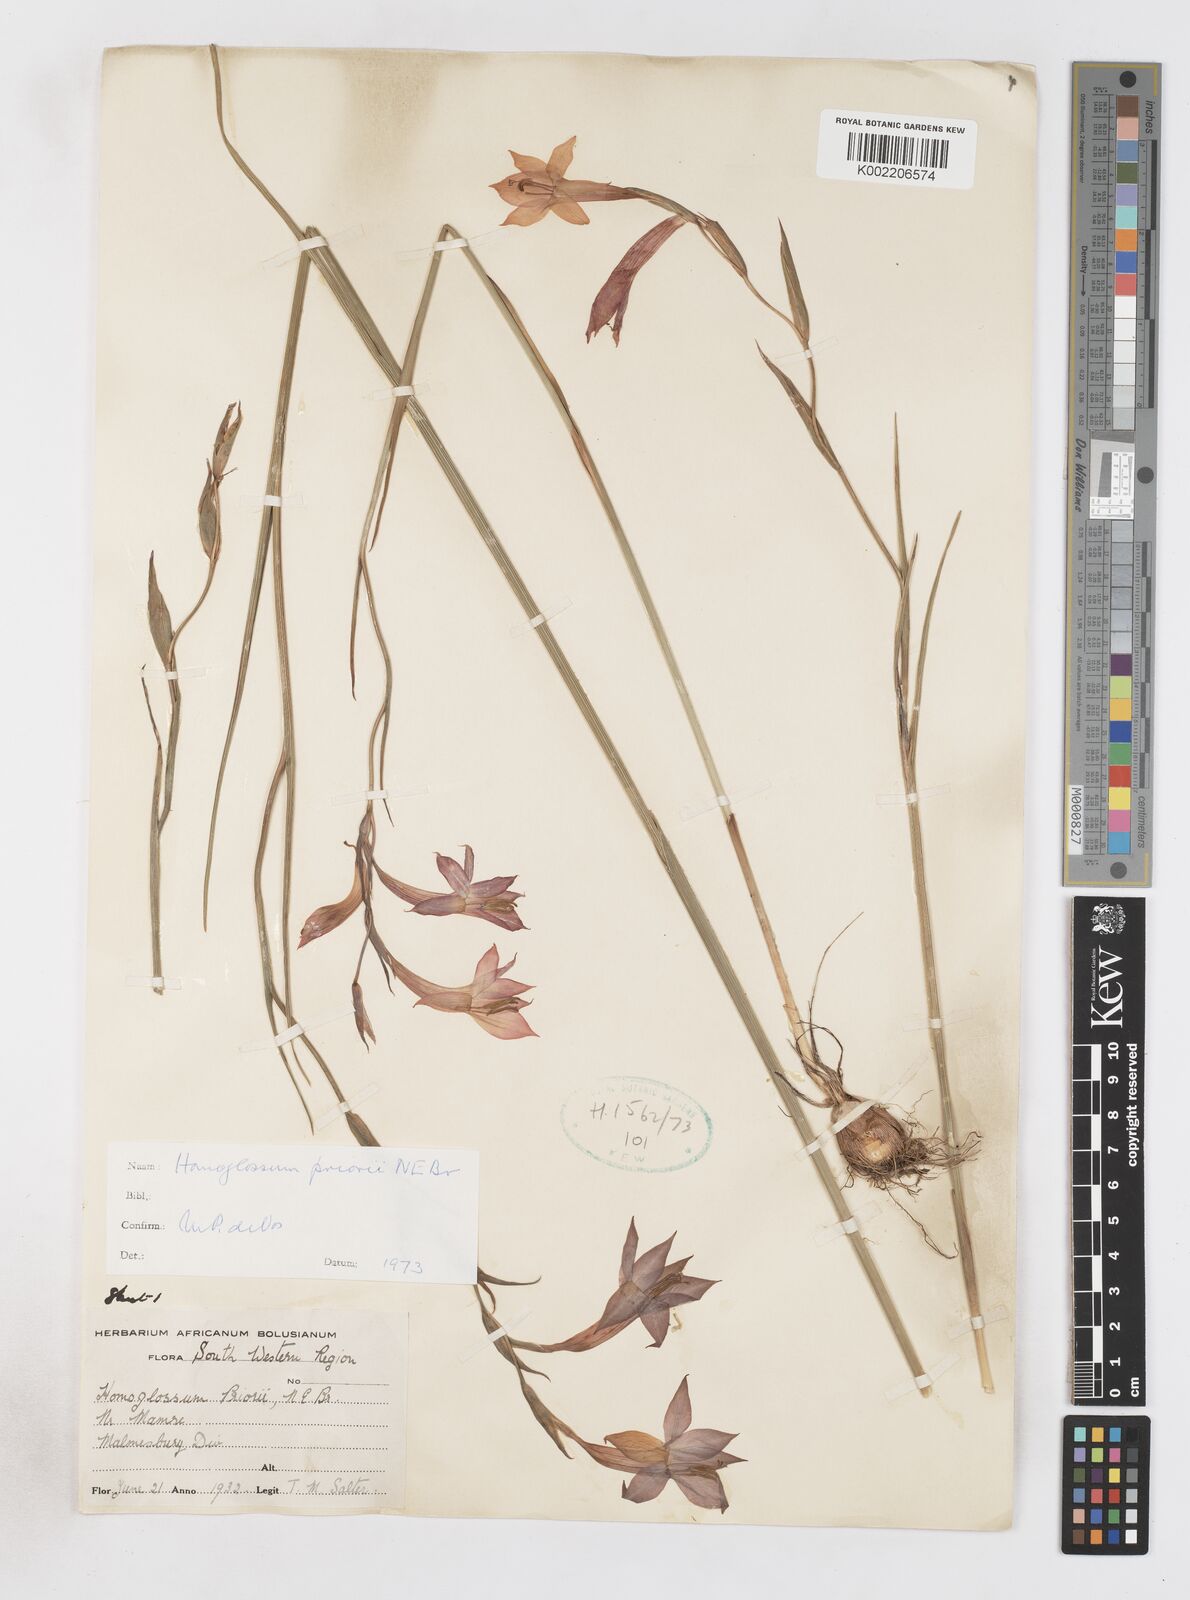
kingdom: Plantae
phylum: Tracheophyta
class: Liliopsida
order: Asparagales
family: Iridaceae
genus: Gladiolus
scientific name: Gladiolus priorii
